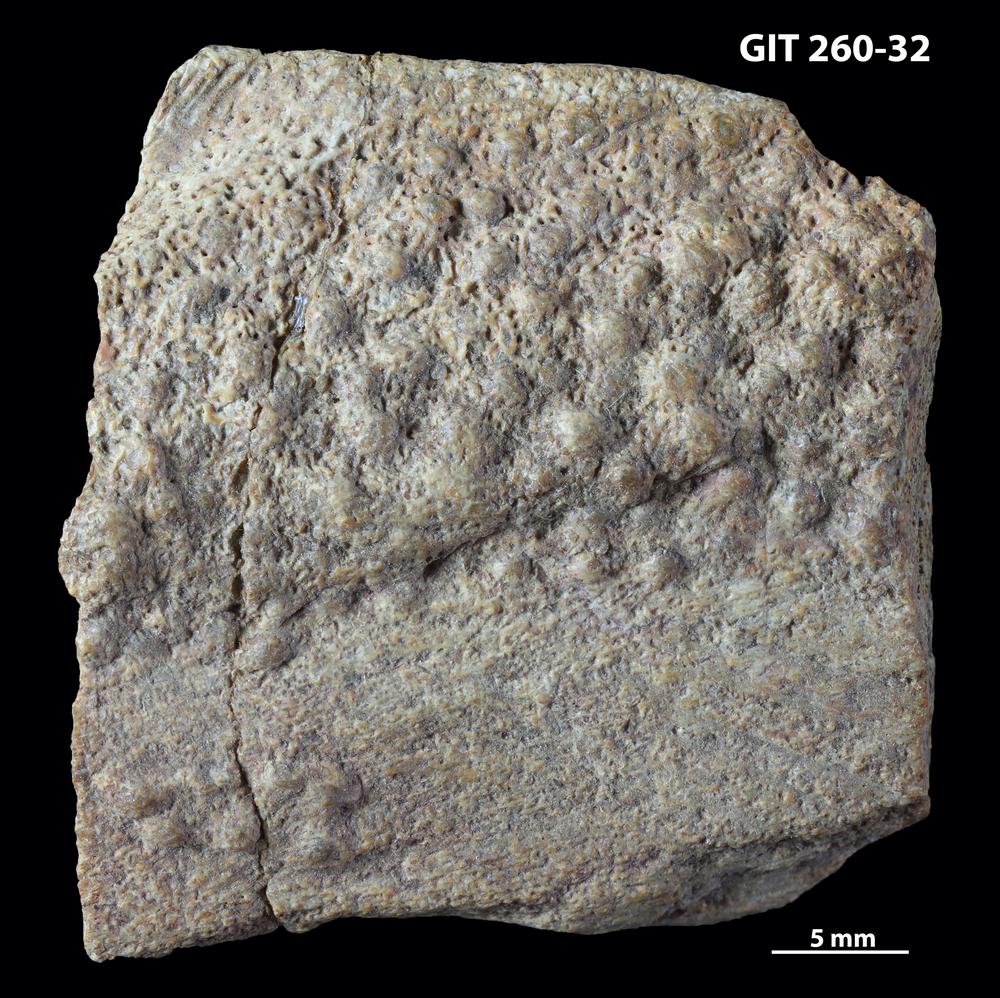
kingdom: Animalia
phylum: Chordata
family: Homostiidae
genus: Homostius
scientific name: Homostius
